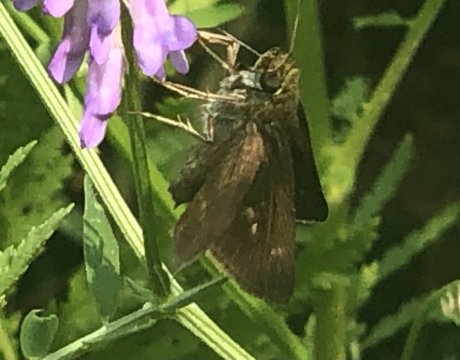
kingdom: Animalia
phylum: Arthropoda
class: Insecta
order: Lepidoptera
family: Hesperiidae
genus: Euphyes
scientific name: Euphyes vestris
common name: Dun Skipper
